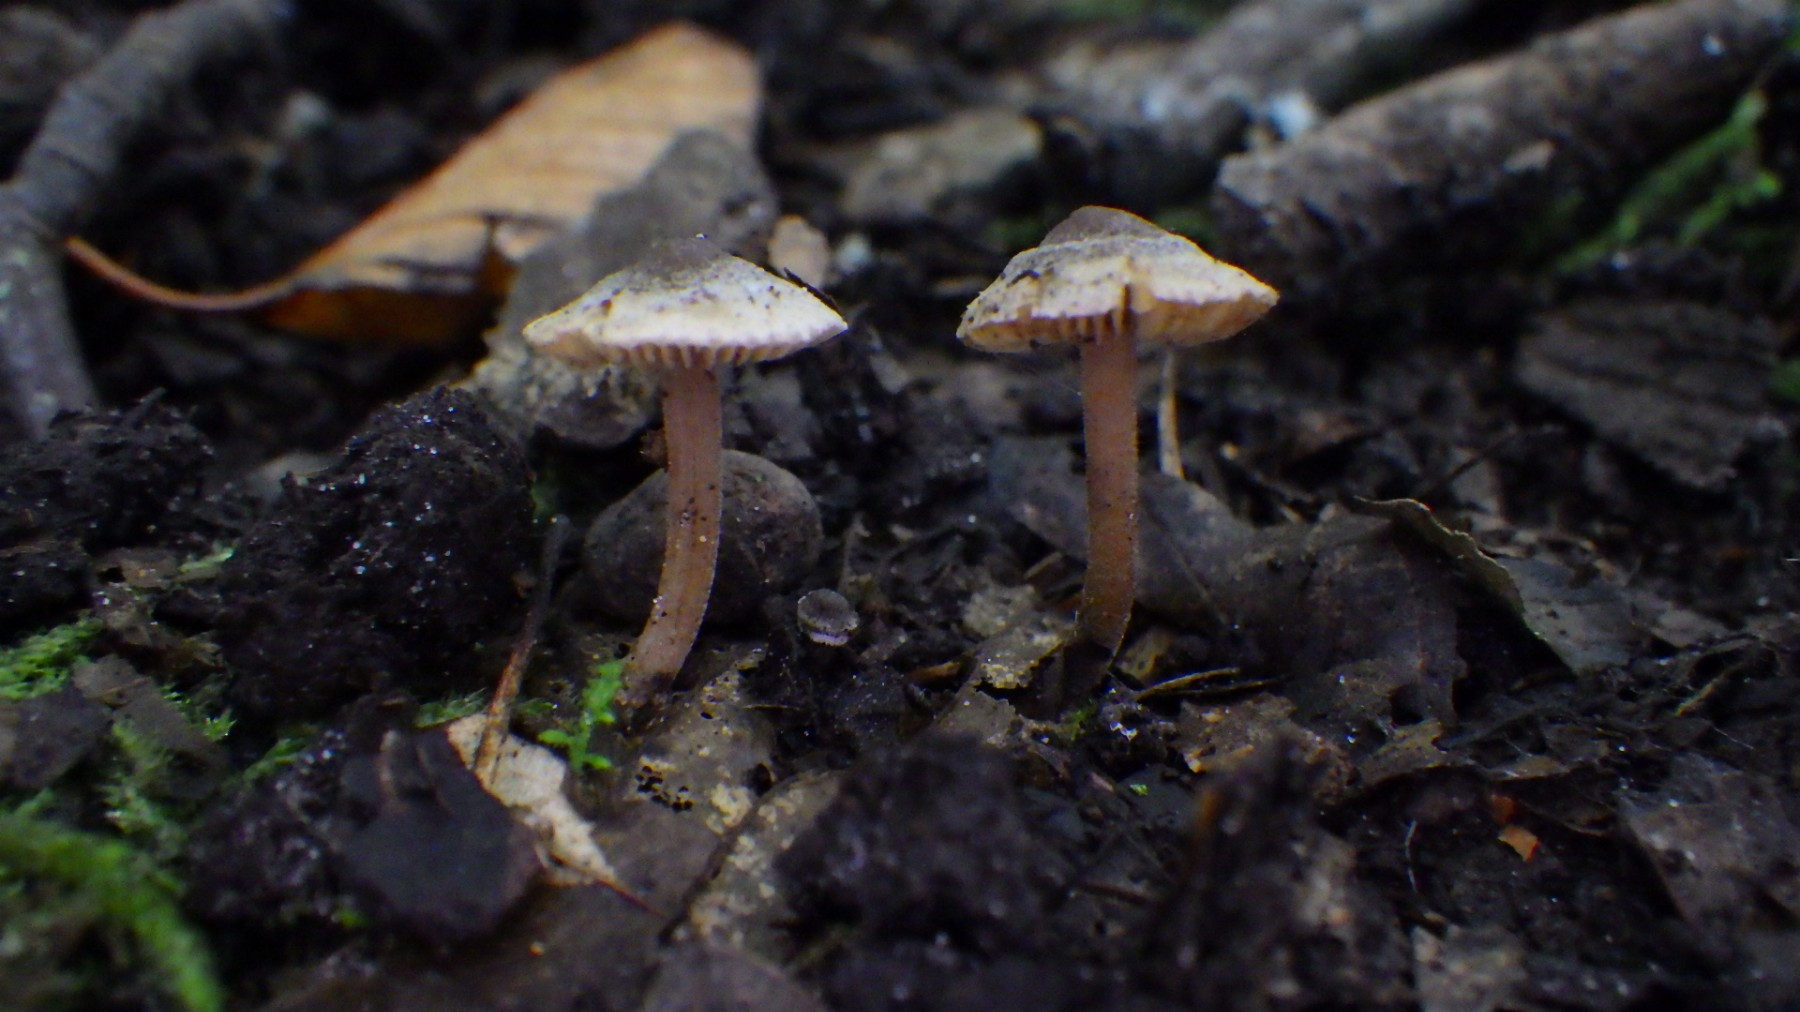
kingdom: Fungi
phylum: Basidiomycota
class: Agaricomycetes
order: Agaricales
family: Inocybaceae
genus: Inocybe
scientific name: Inocybe petiginosa
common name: liden trævlhat
